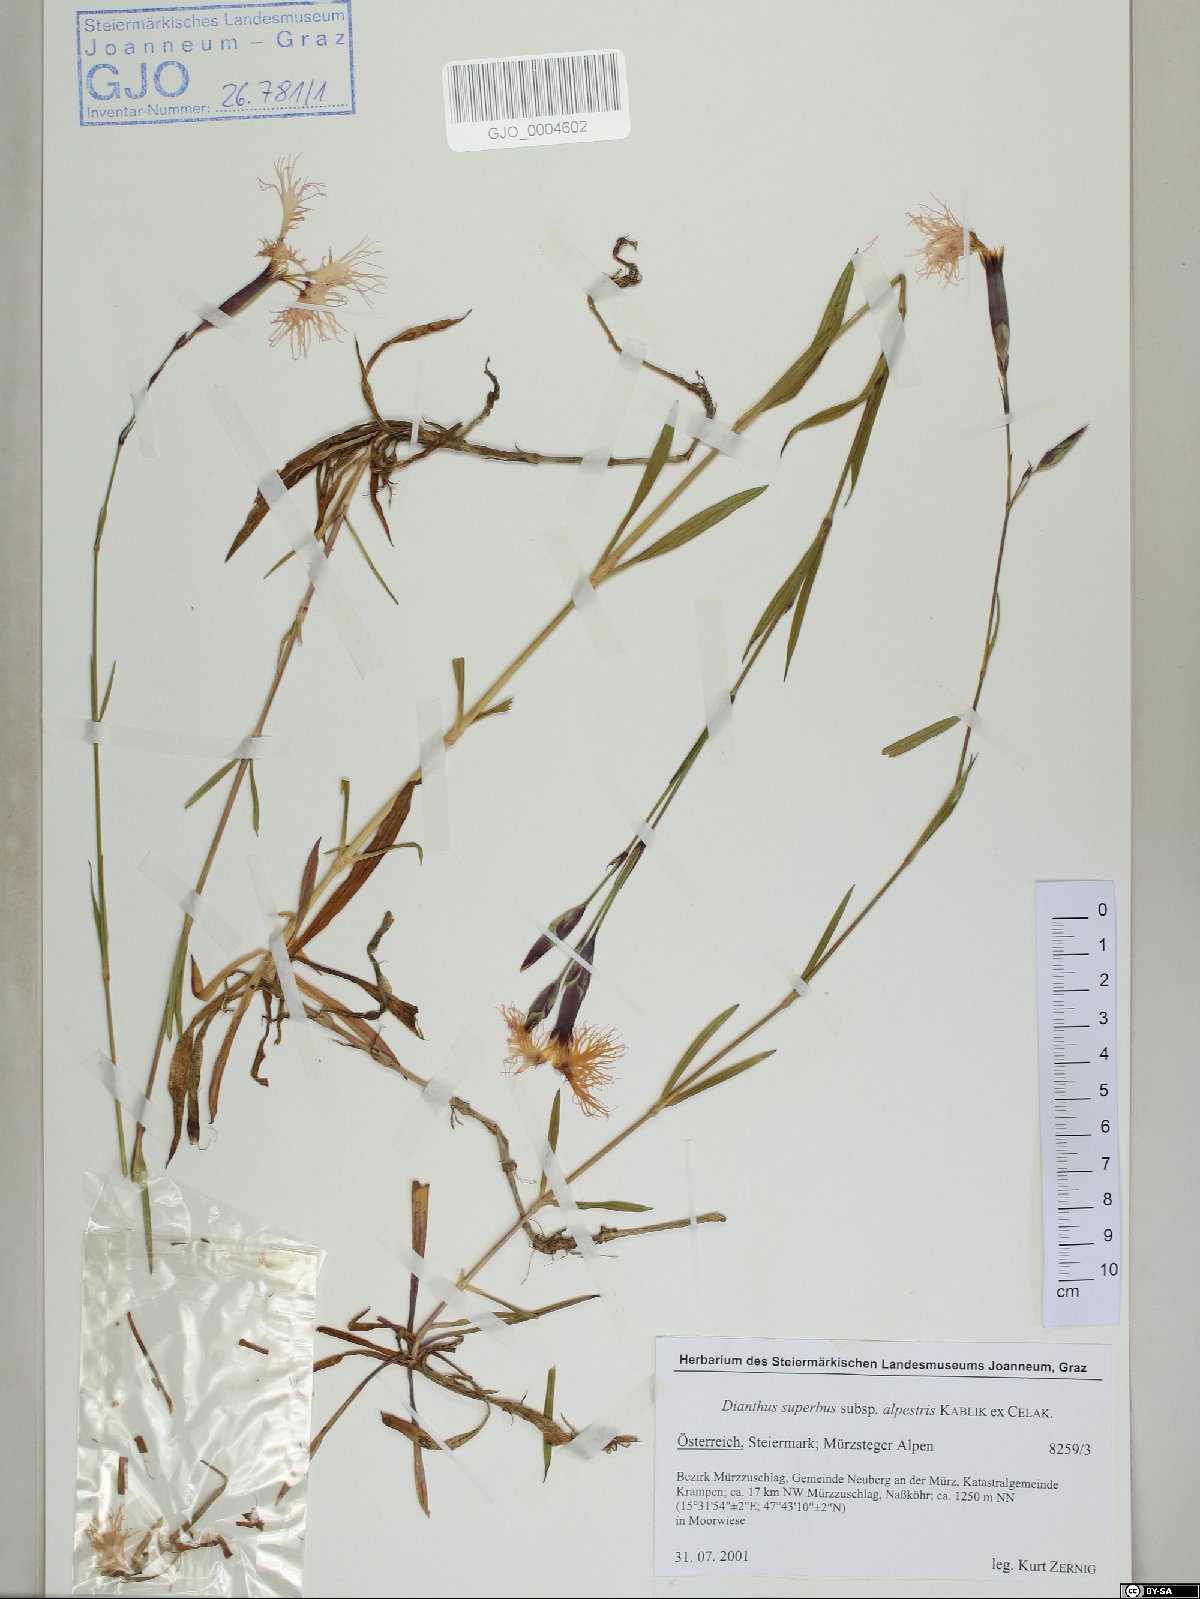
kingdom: Plantae
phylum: Tracheophyta
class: Magnoliopsida
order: Caryophyllales
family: Caryophyllaceae
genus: Dianthus
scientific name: Dianthus superbus
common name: Fringed pink
